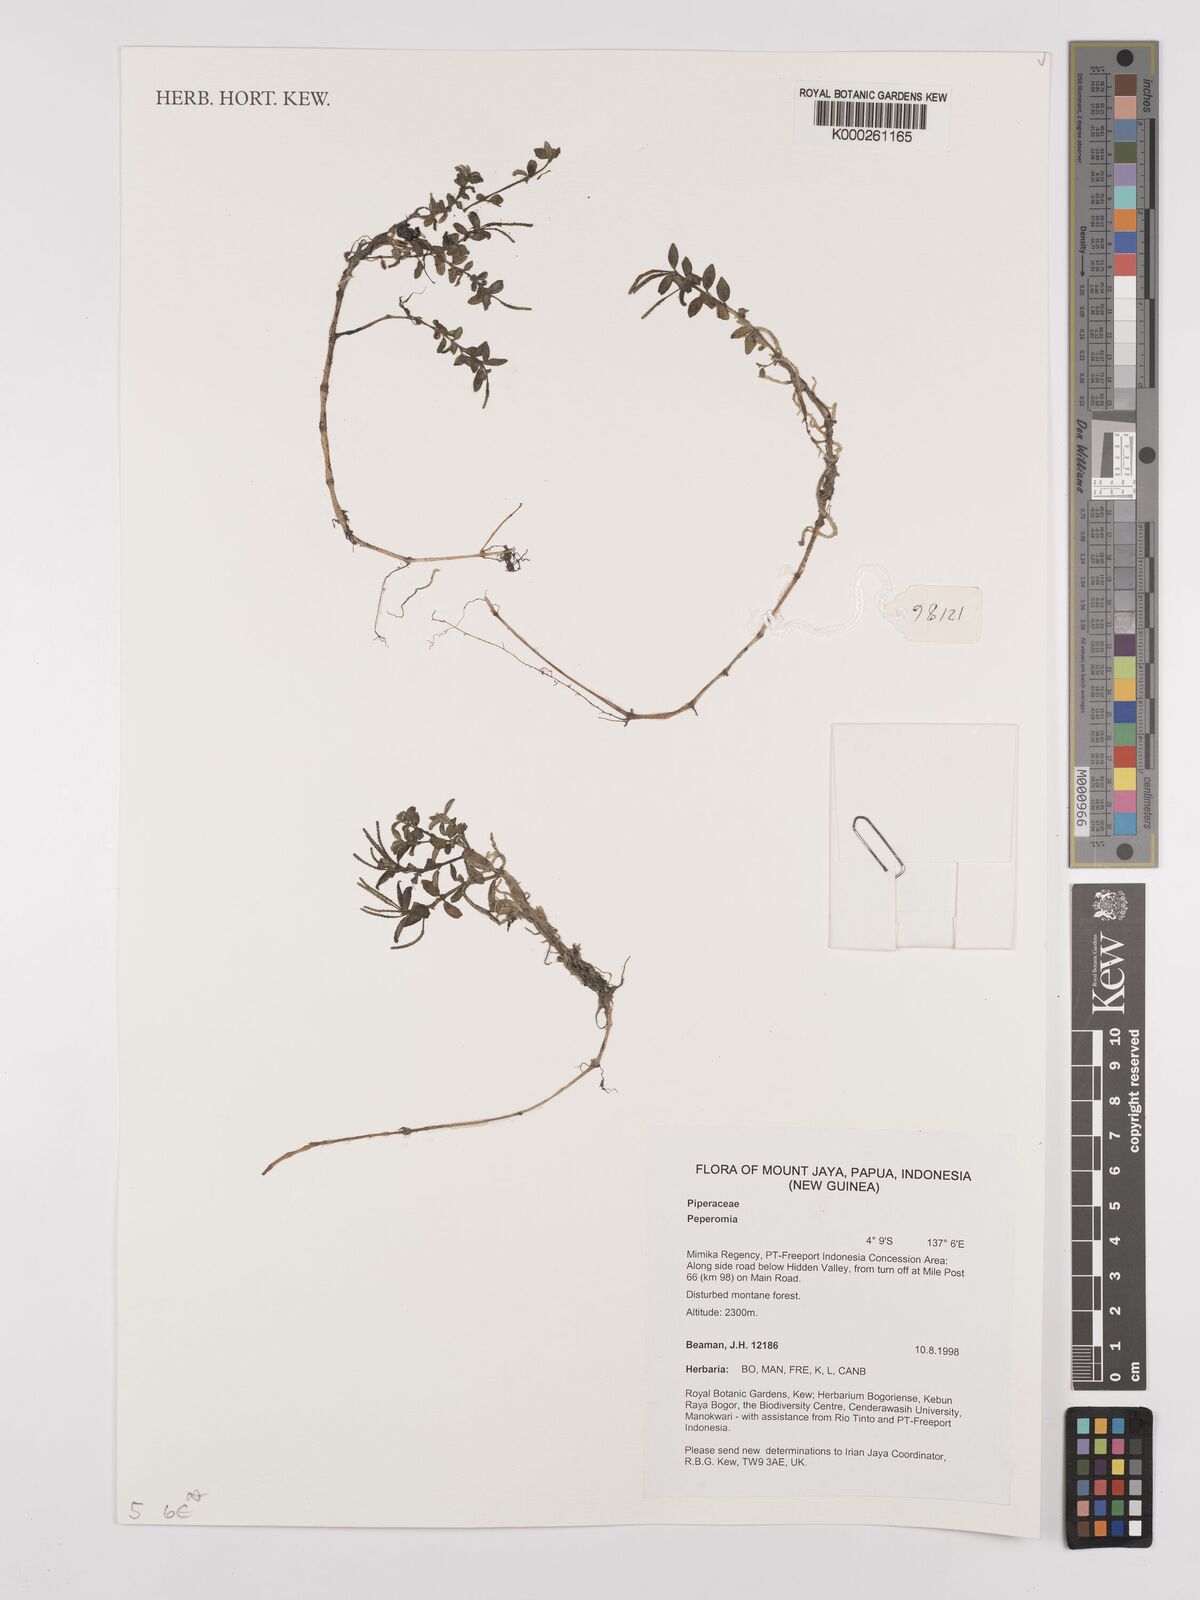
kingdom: Plantae
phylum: Tracheophyta
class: Magnoliopsida
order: Piperales
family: Piperaceae
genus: Peperomia
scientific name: Peperomia
